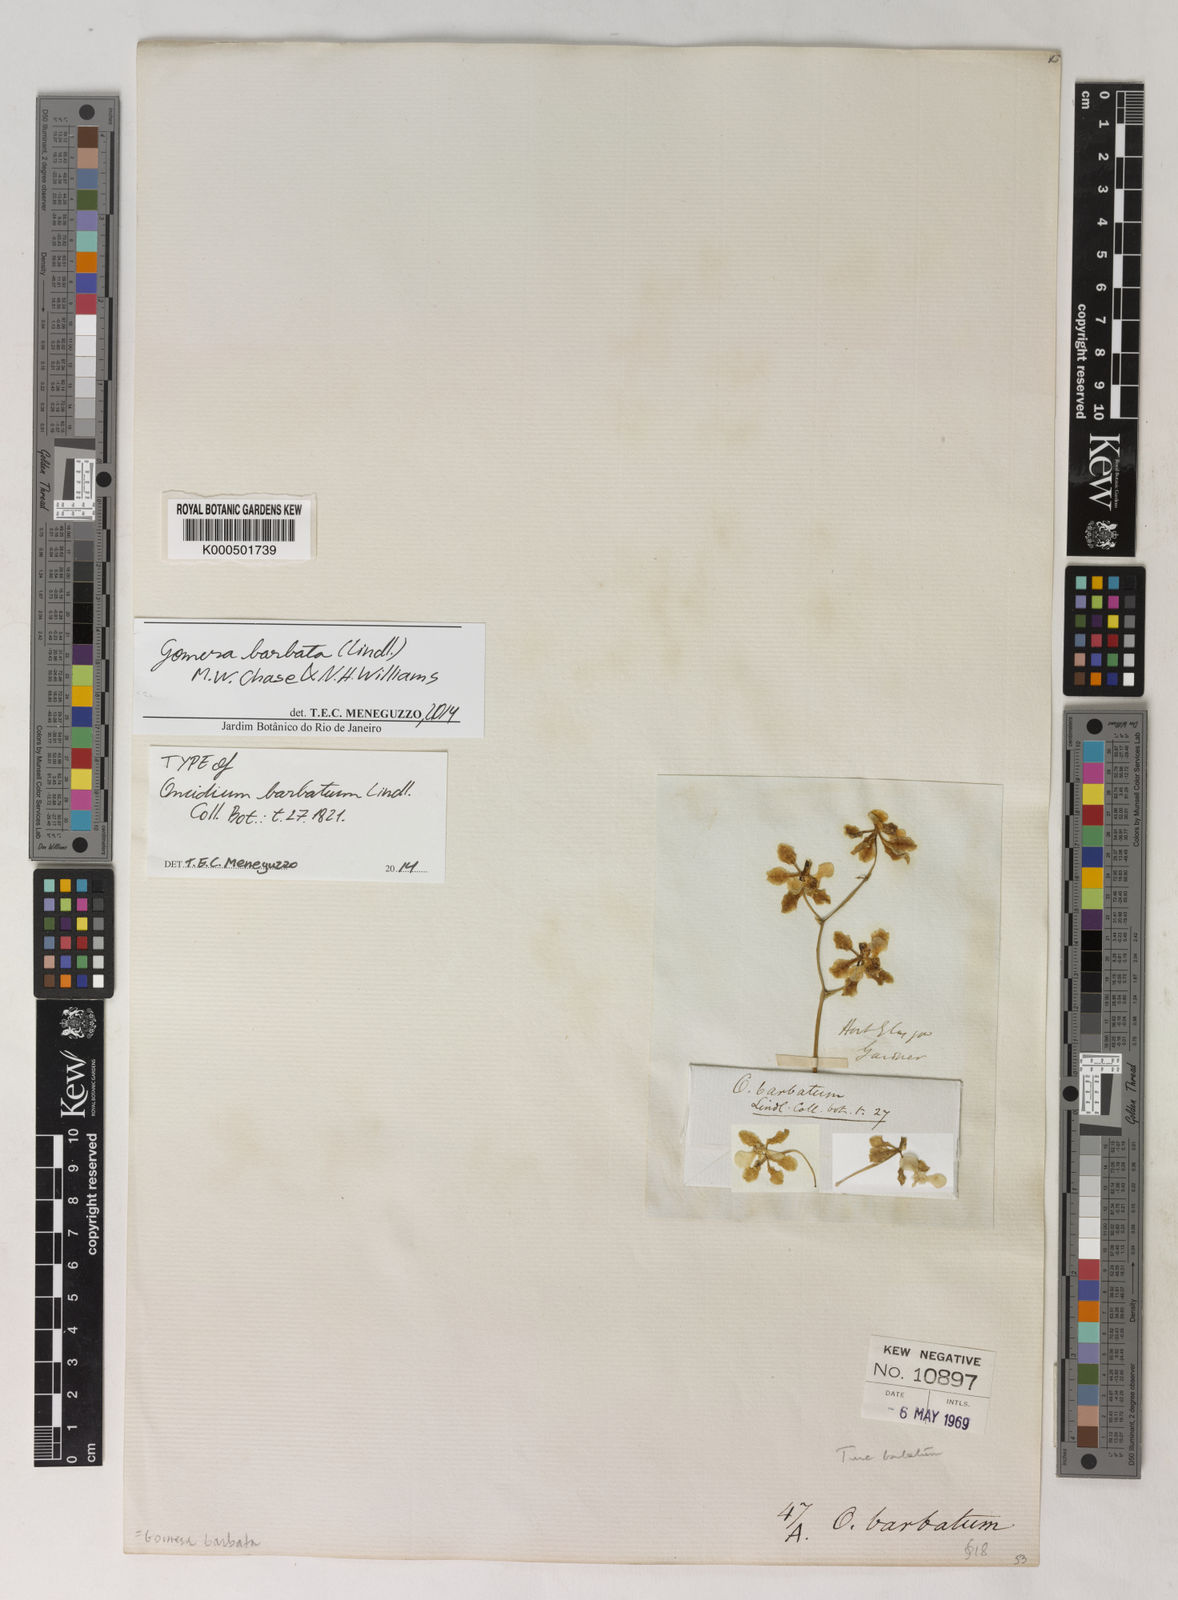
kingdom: Plantae
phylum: Tracheophyta
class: Liliopsida
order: Asparagales
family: Orchidaceae
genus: Gomesa
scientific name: Gomesa barbata
